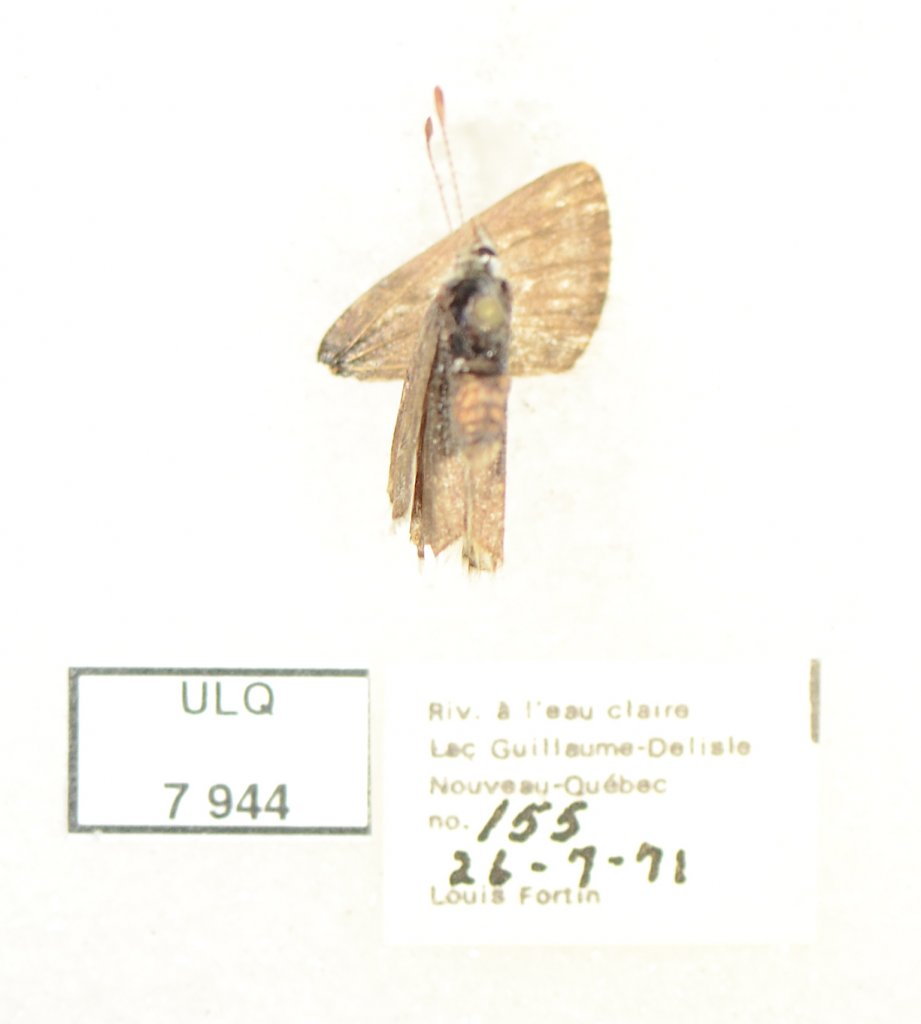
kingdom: Animalia
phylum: Arthropoda
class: Insecta
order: Lepidoptera
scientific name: Lepidoptera
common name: Butterflies
